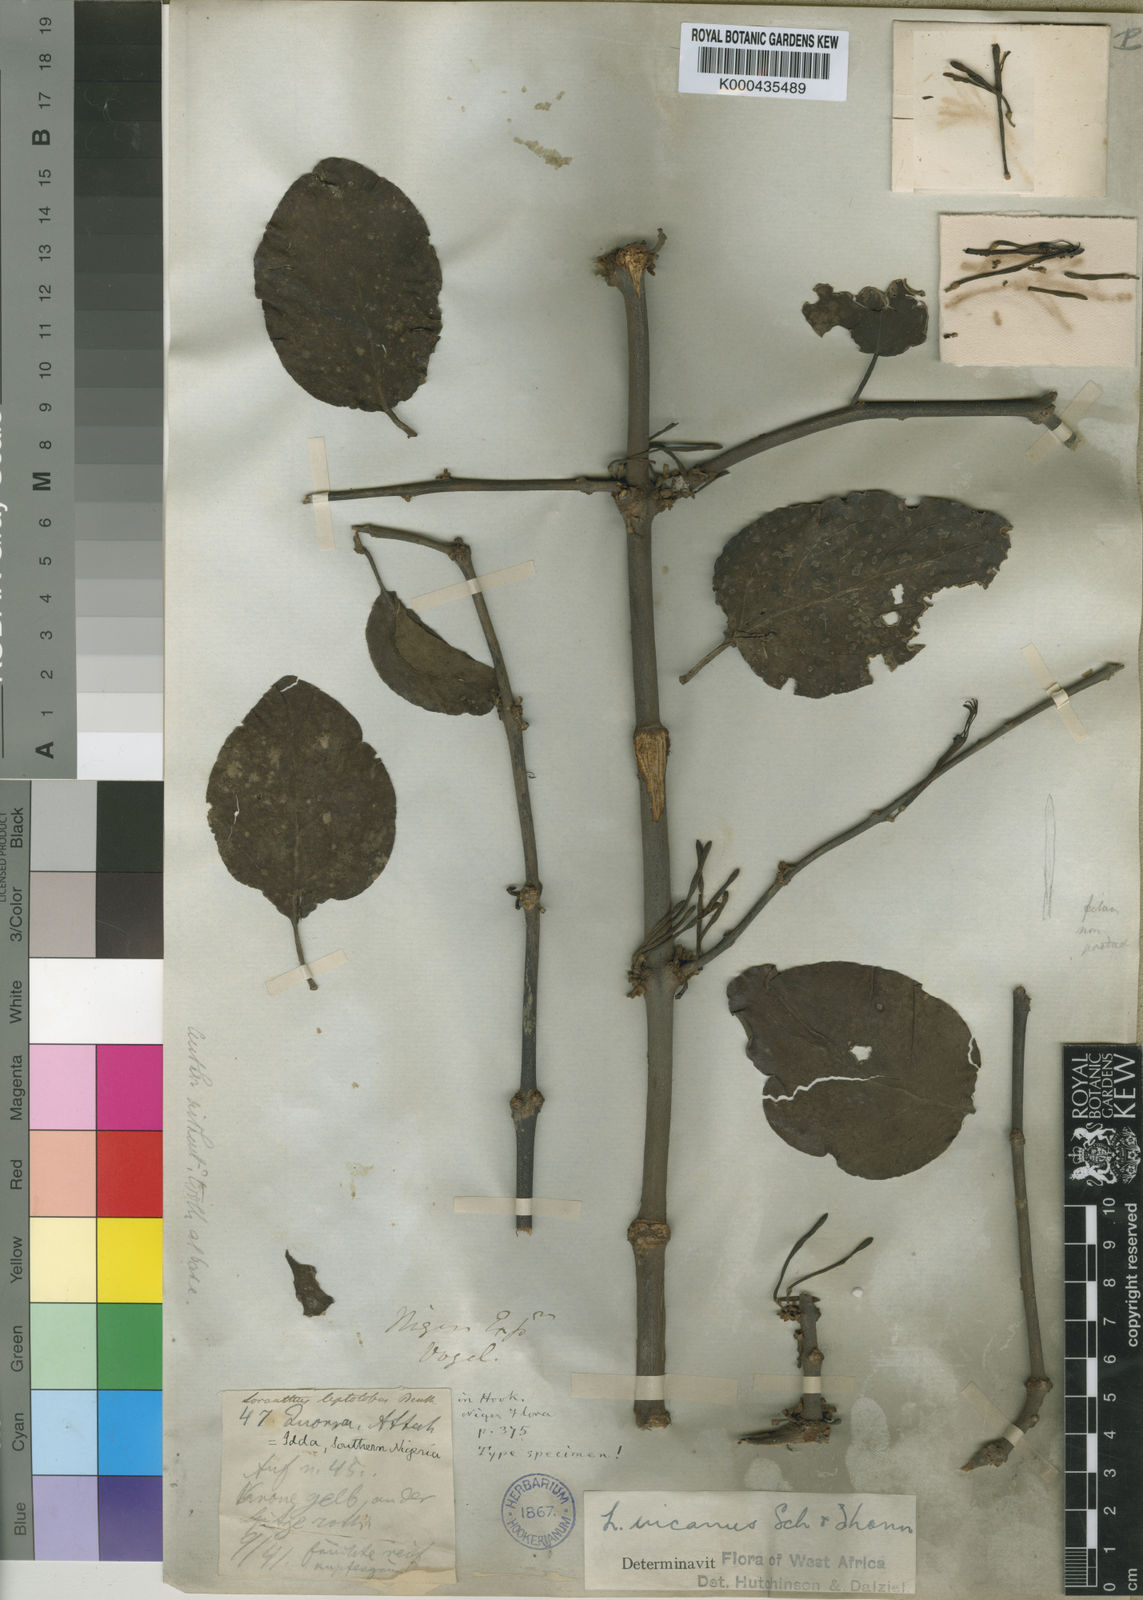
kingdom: Plantae
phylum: Tracheophyta
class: Magnoliopsida
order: Santalales
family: Loranthaceae
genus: Phragmanthera
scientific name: Phragmanthera capitata
